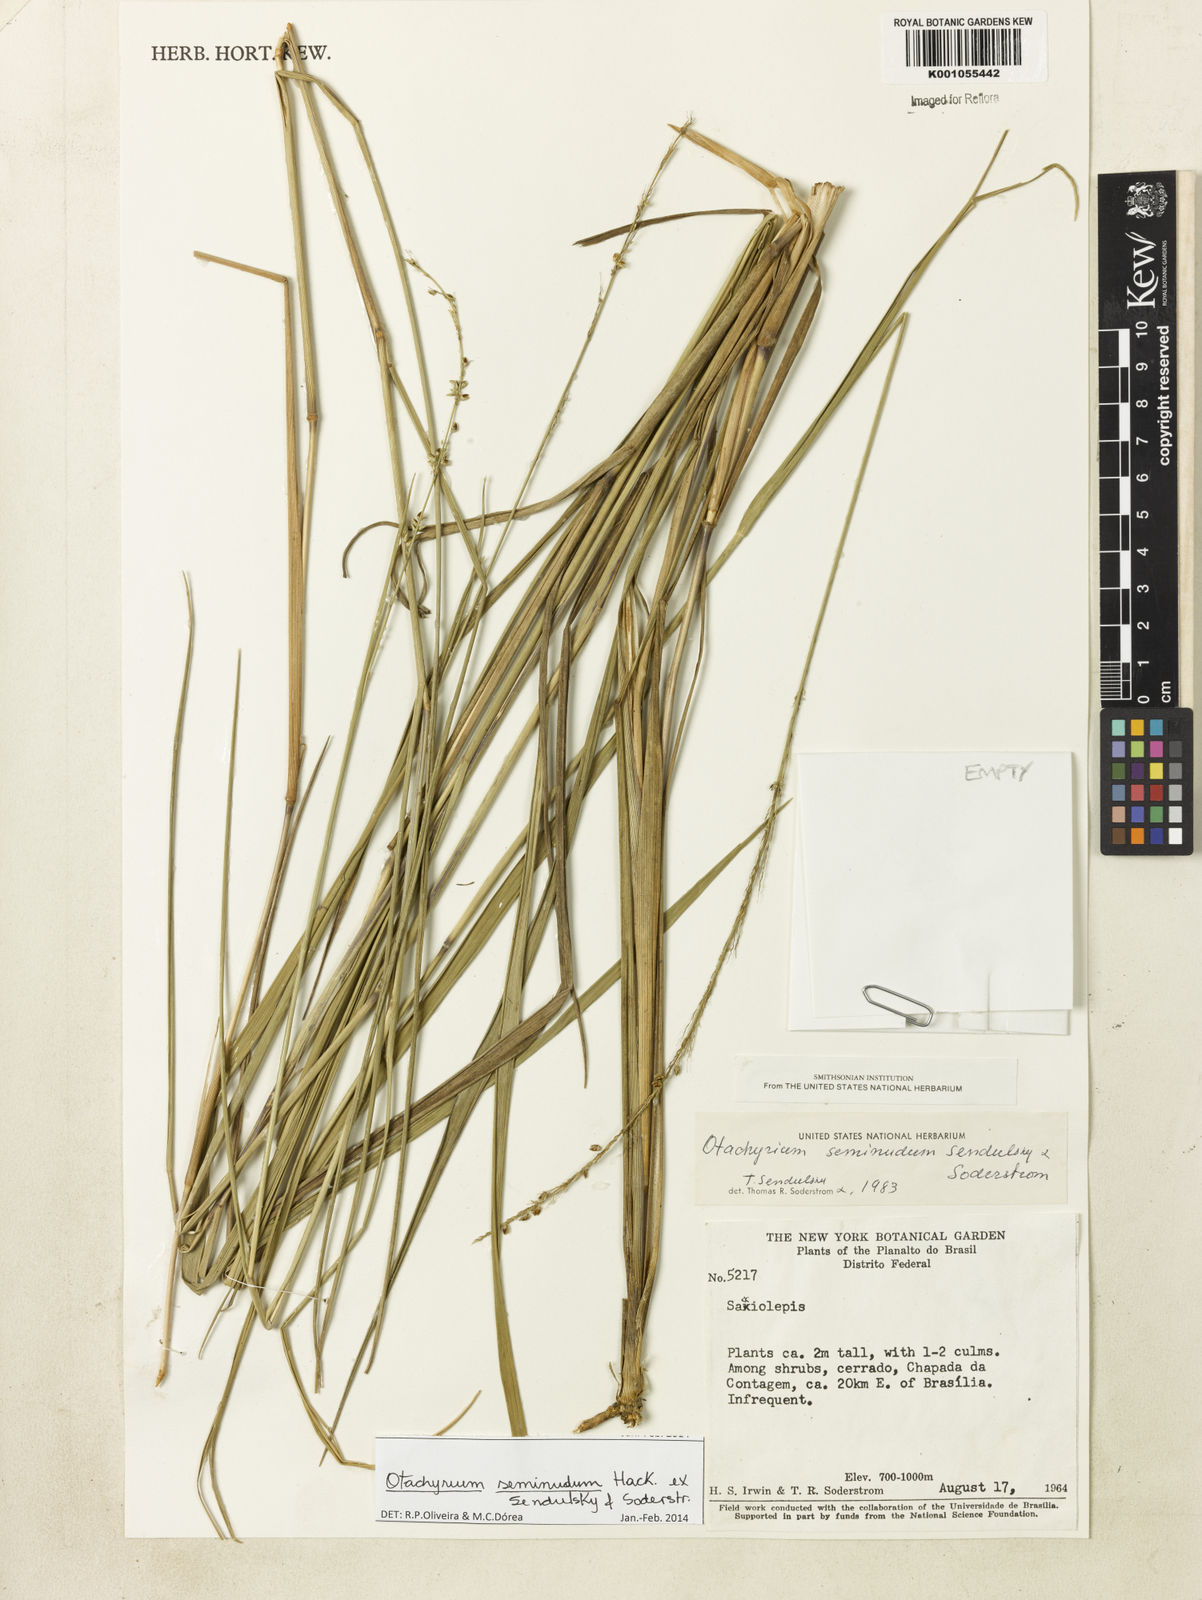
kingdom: Plantae
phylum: Tracheophyta
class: Liliopsida
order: Poales
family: Poaceae
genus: Otachyrium
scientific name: Otachyrium seminudum
